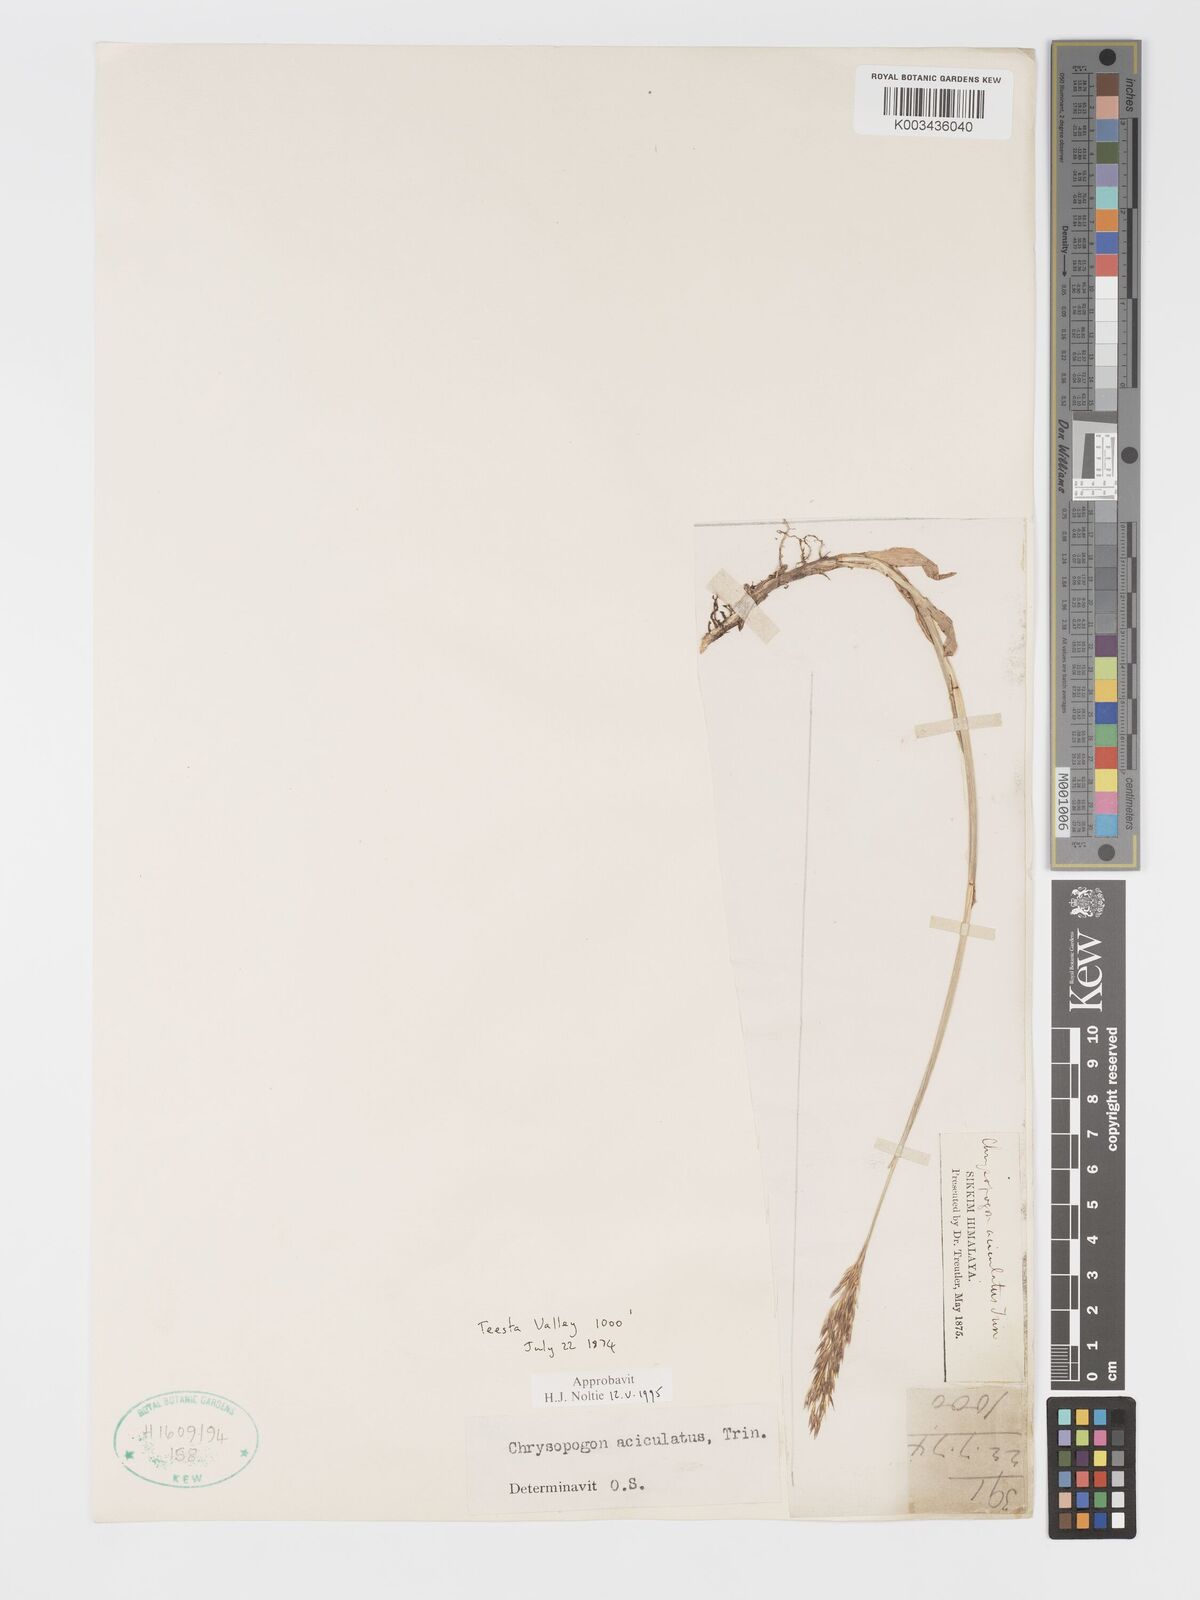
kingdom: Plantae
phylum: Tracheophyta
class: Liliopsida
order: Poales
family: Poaceae
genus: Chrysopogon
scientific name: Chrysopogon aciculatus
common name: Pilipiliula
